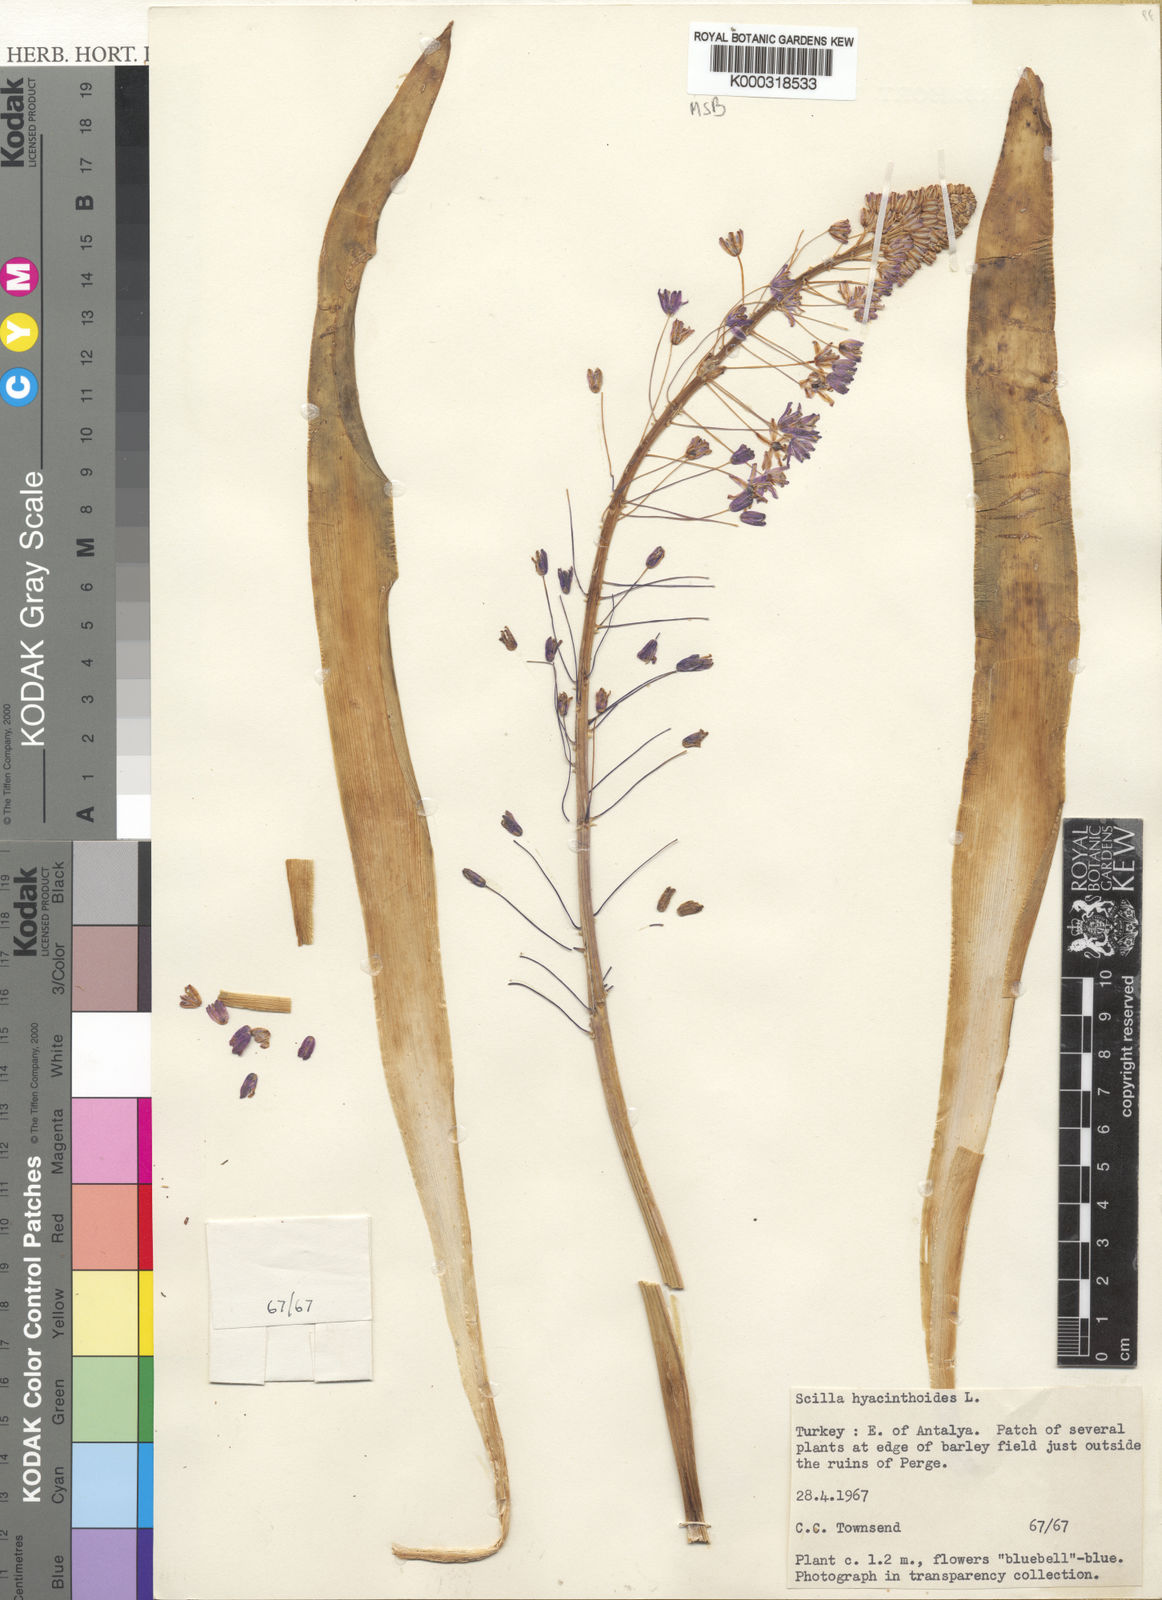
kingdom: Plantae
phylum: Tracheophyta
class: Liliopsida
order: Asparagales
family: Asparagaceae
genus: Scilla
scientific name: Scilla hyacinthoides
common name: Scilla
